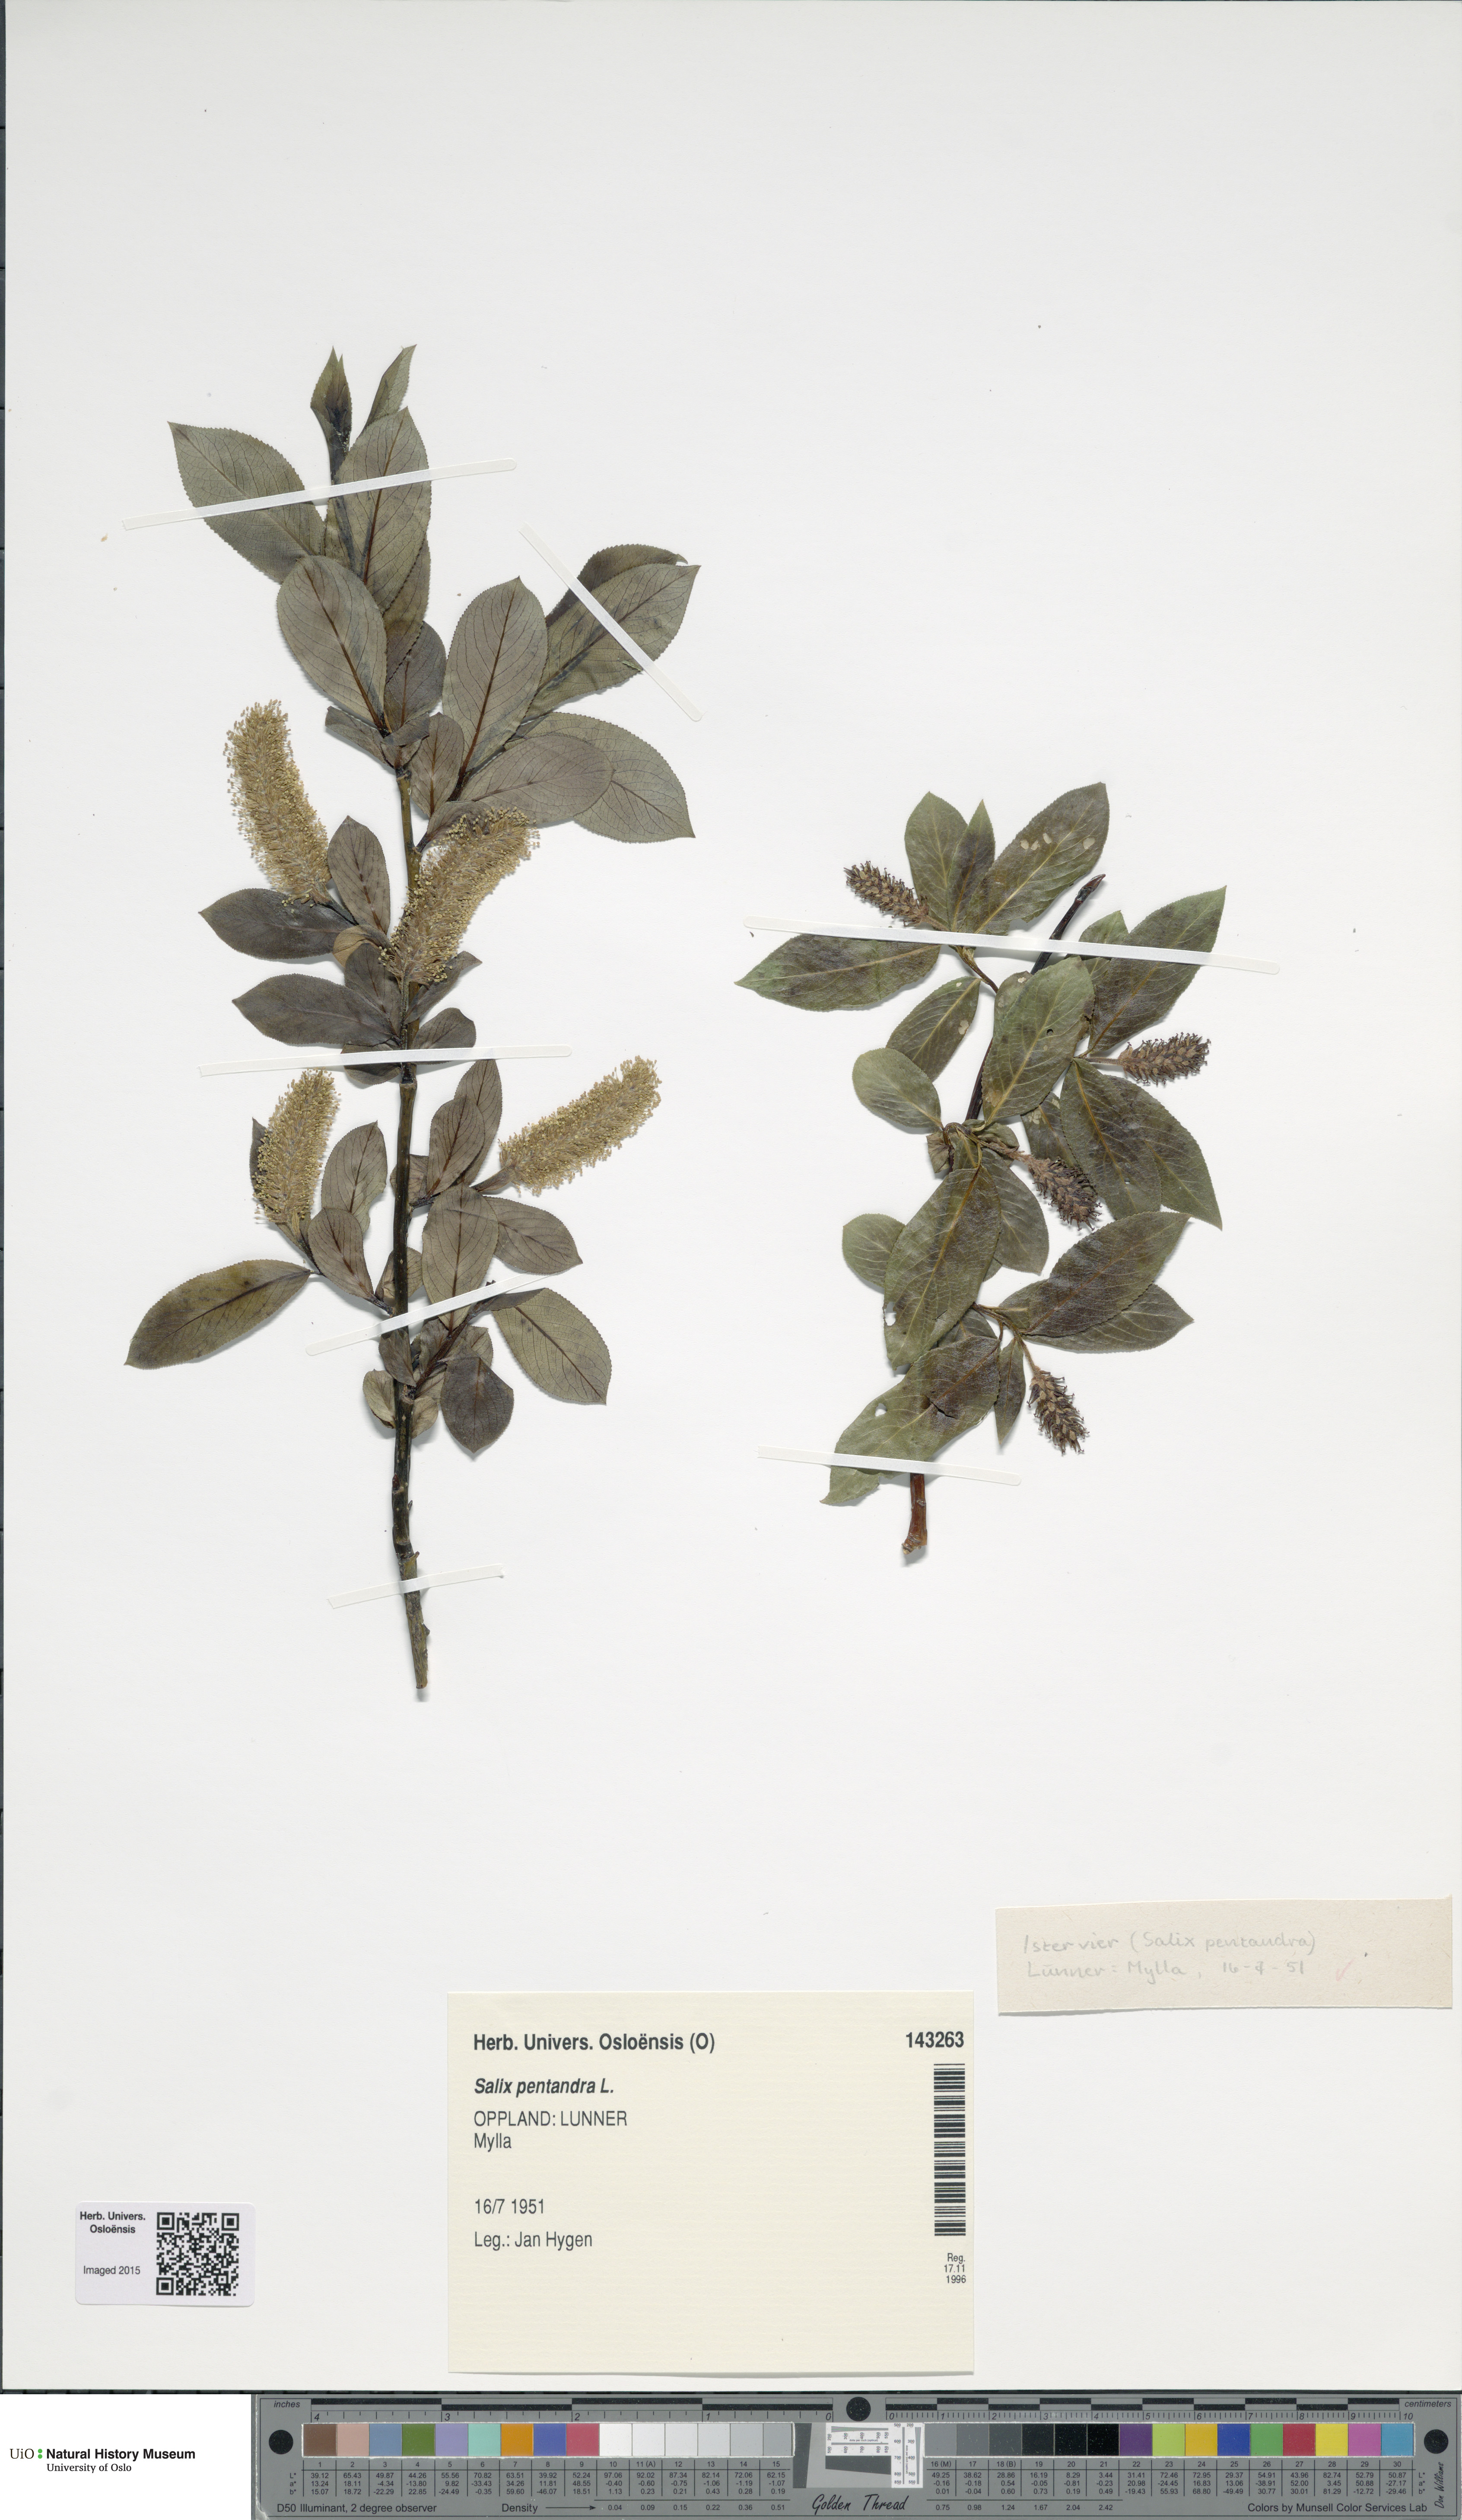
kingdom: Plantae
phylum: Tracheophyta
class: Magnoliopsida
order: Malpighiales
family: Salicaceae
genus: Salix
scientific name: Salix pentandra
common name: Bay willow
